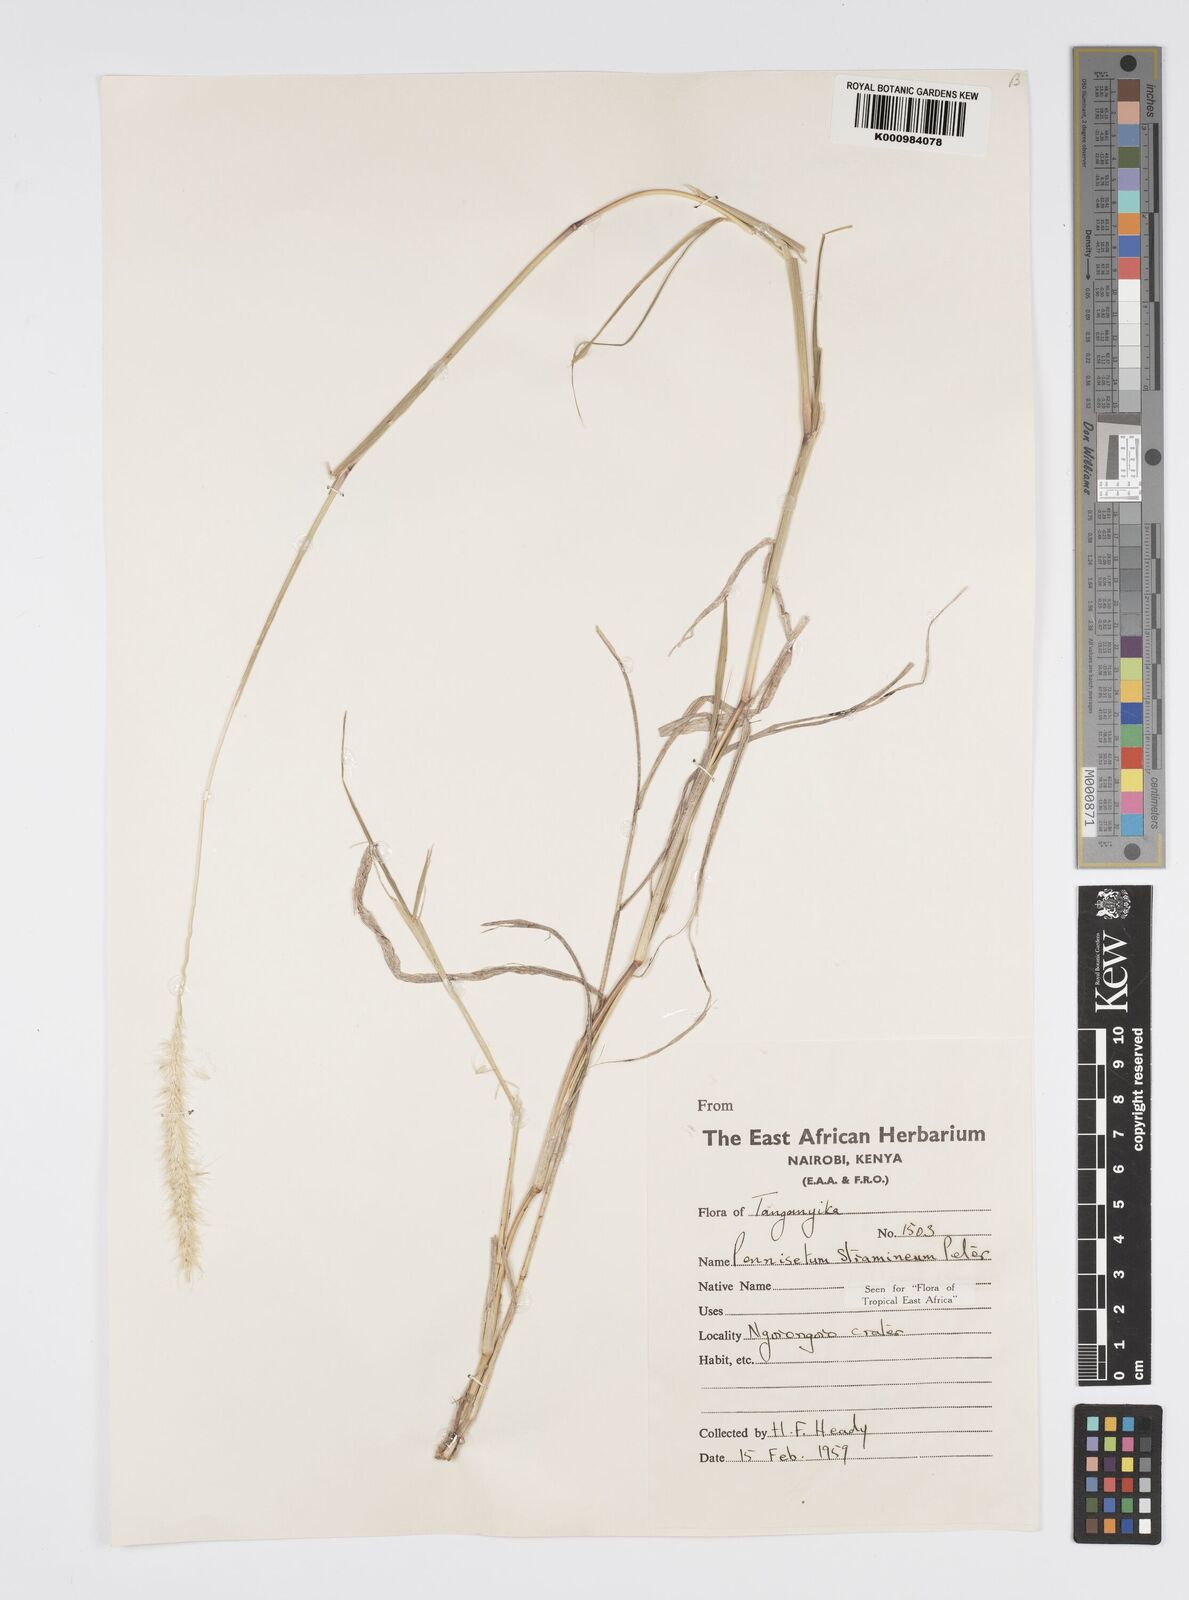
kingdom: Plantae
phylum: Tracheophyta
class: Liliopsida
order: Poales
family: Poaceae
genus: Cenchrus
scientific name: Cenchrus stramineus
